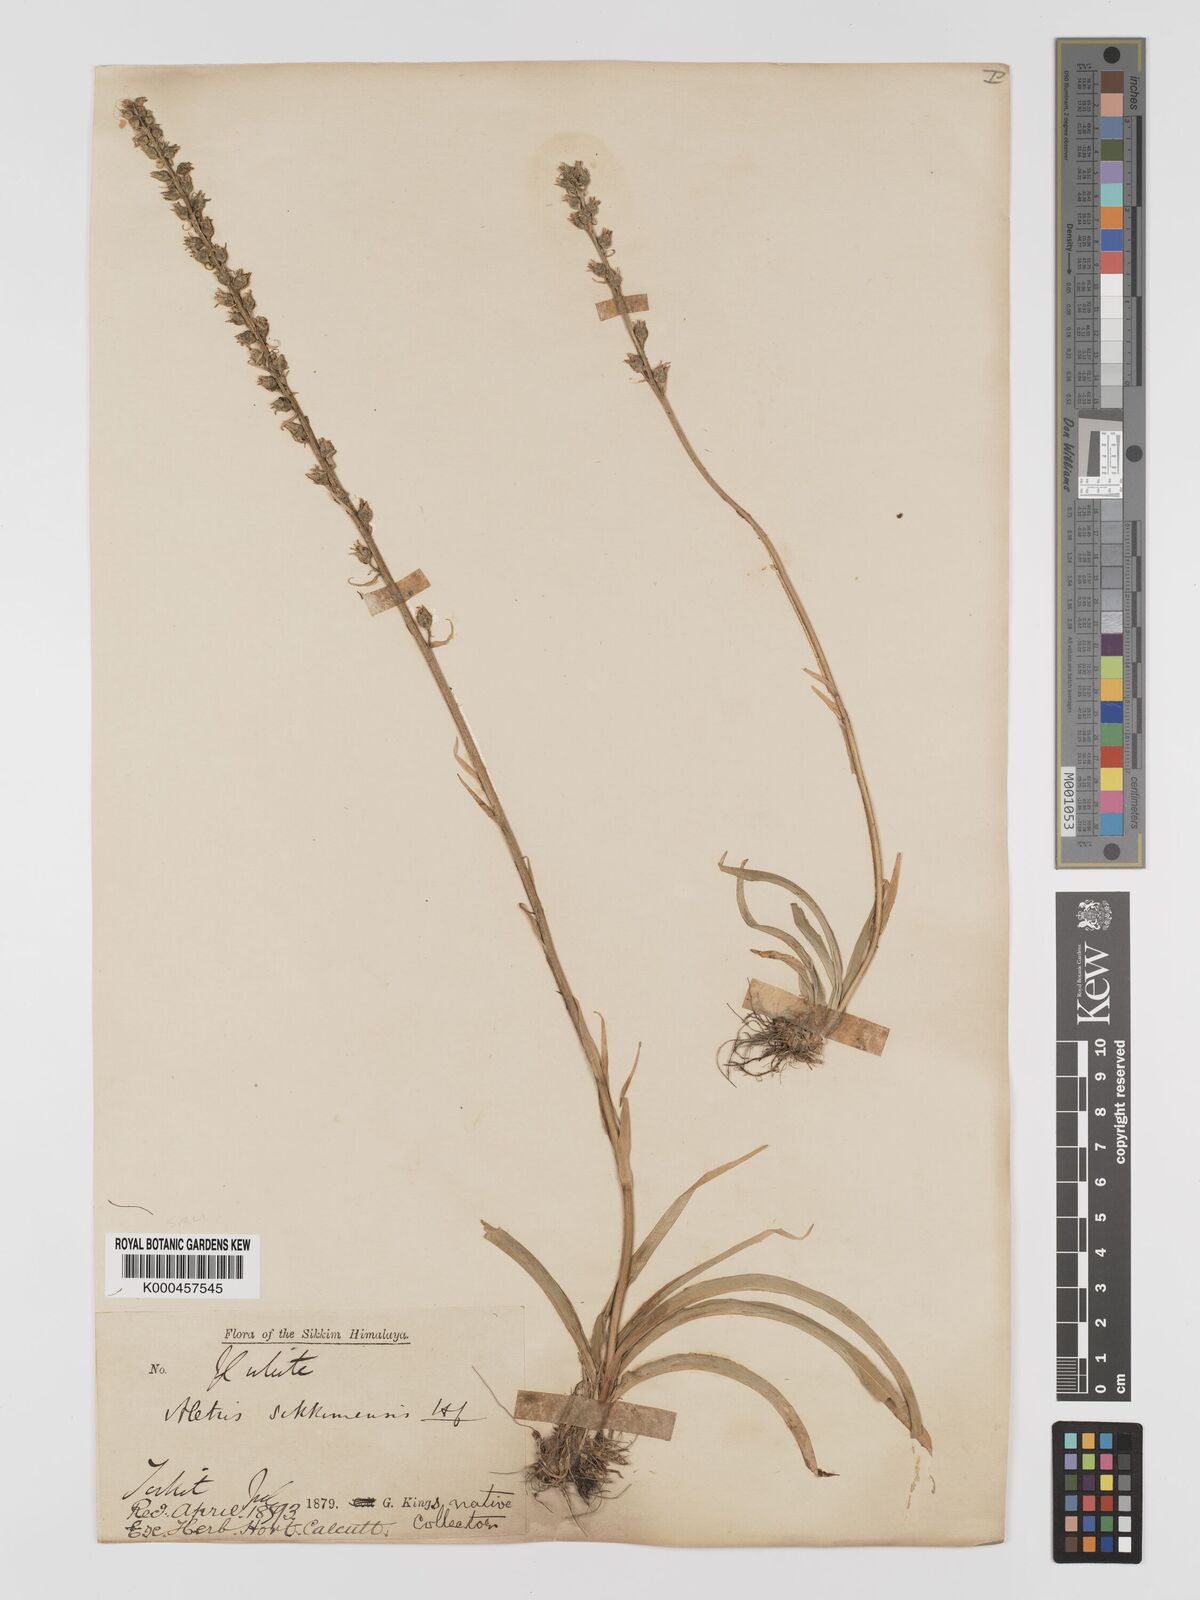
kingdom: Plantae
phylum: Tracheophyta
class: Liliopsida
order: Dioscoreales
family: Nartheciaceae
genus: Aletris
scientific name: Aletris glabra
